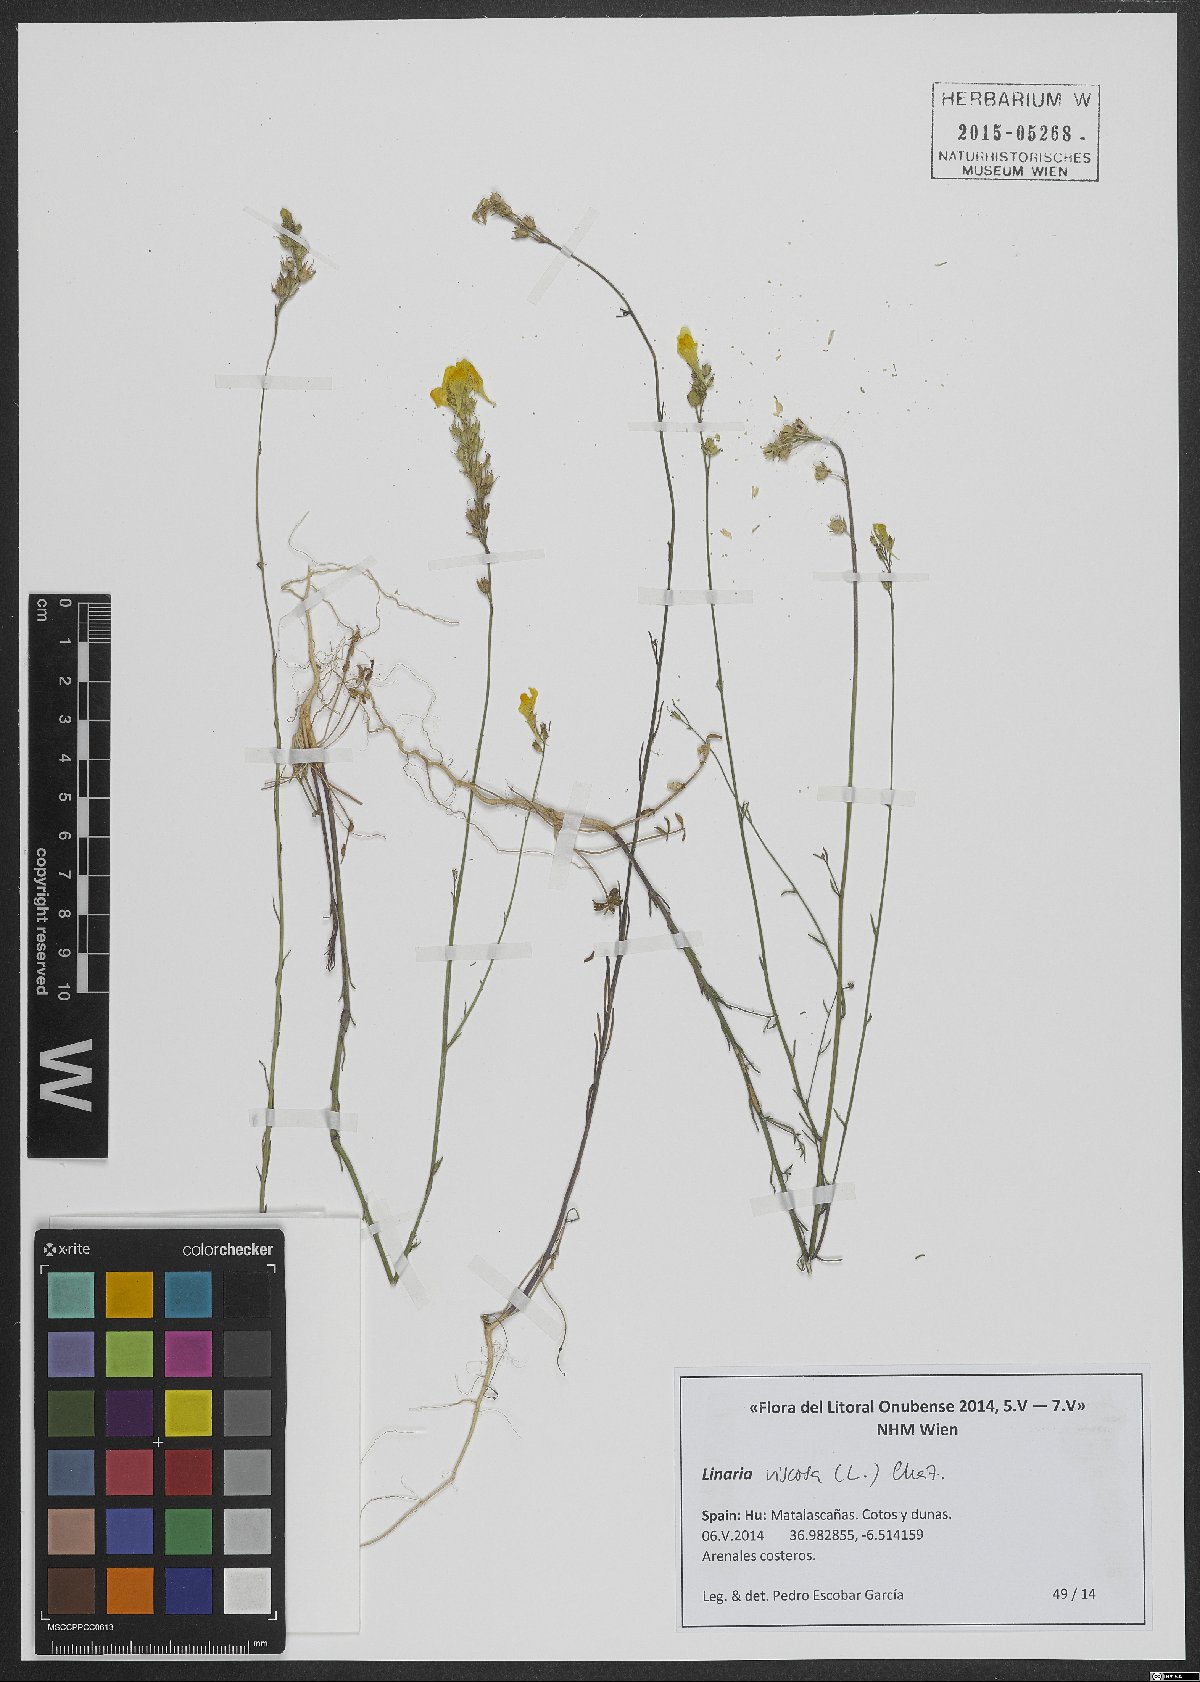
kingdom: Plantae
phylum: Tracheophyta
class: Magnoliopsida
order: Lamiales
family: Plantaginaceae
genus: Linaria
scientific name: Linaria viscosa
